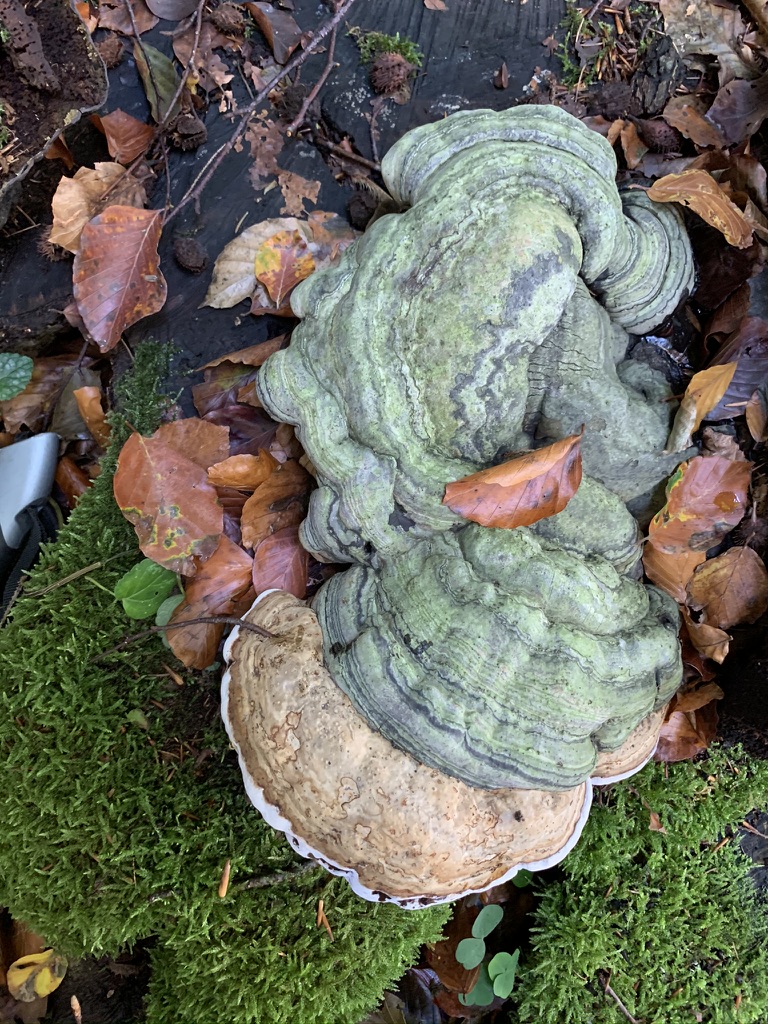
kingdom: Fungi
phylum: Basidiomycota
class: Agaricomycetes
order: Polyporales
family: Polyporaceae
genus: Fomes
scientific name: Fomes fomentarius
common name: tøndersvamp
